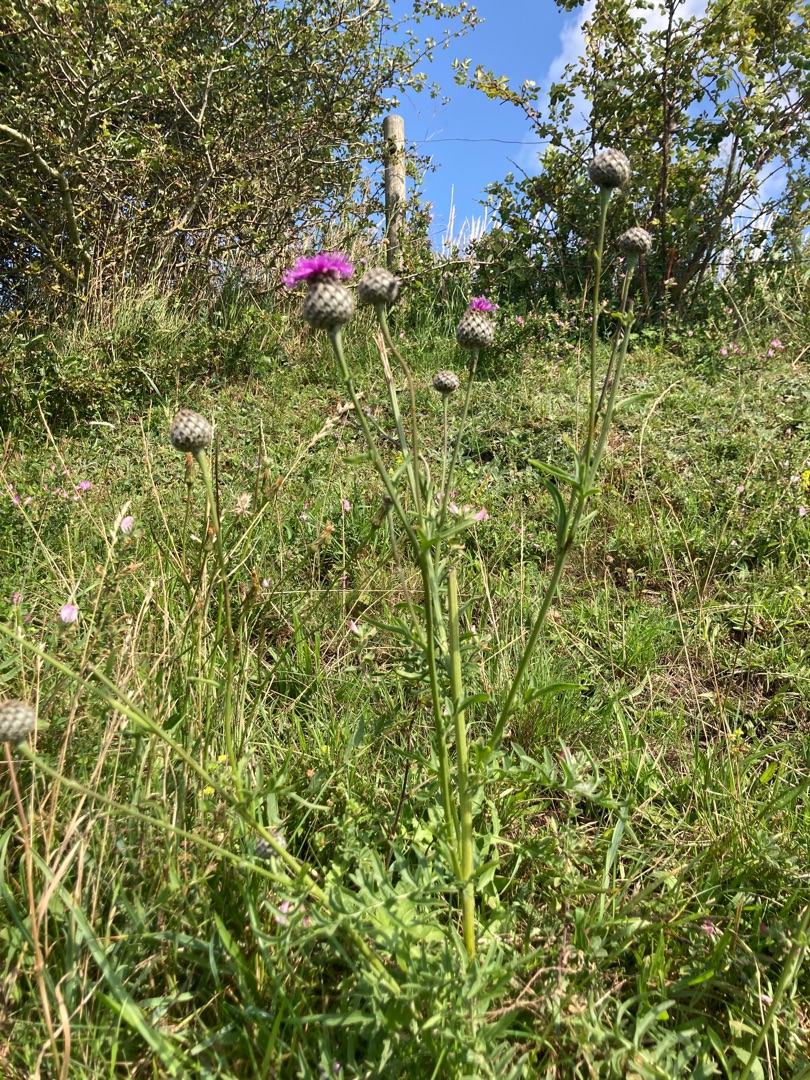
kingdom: Plantae
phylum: Tracheophyta
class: Magnoliopsida
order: Asterales
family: Asteraceae
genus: Centaurea
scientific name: Centaurea scabiosa
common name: Stor knopurt
